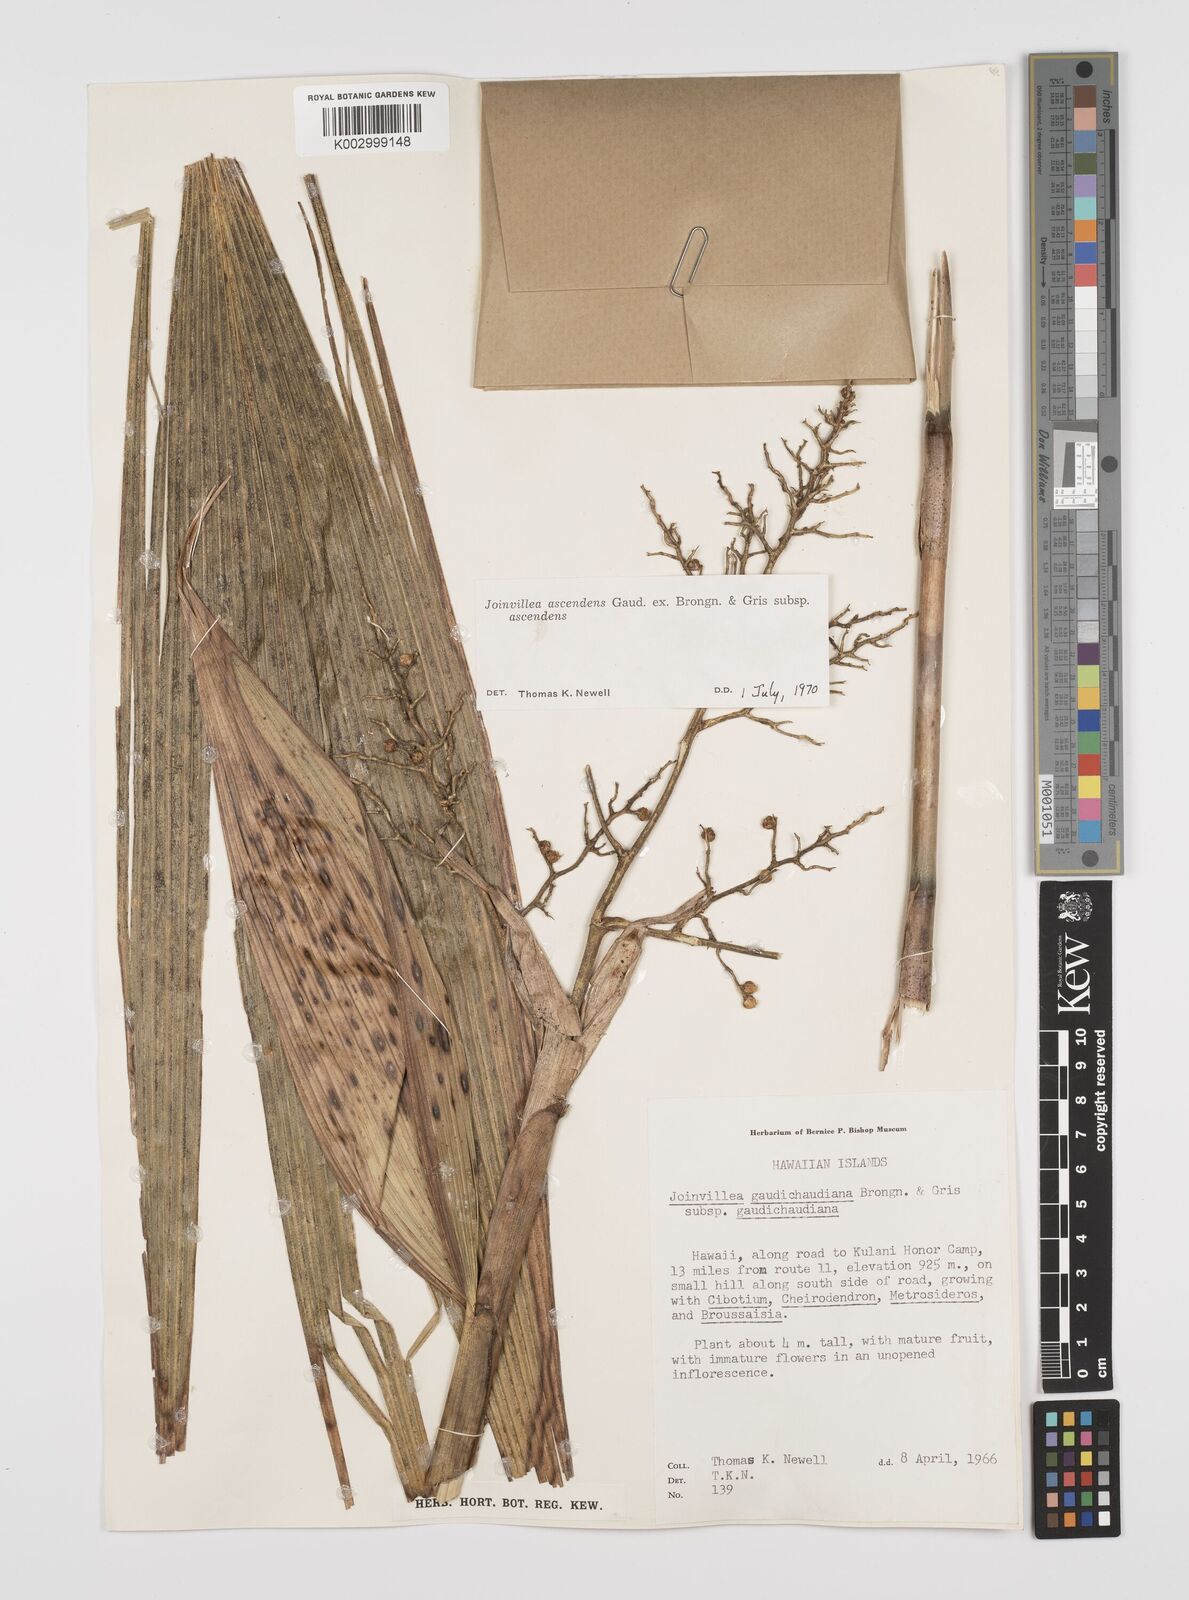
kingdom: Plantae
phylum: Tracheophyta
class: Liliopsida
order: Poales
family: Joinvilleaceae
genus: Joinvillea
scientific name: Joinvillea ascendens
